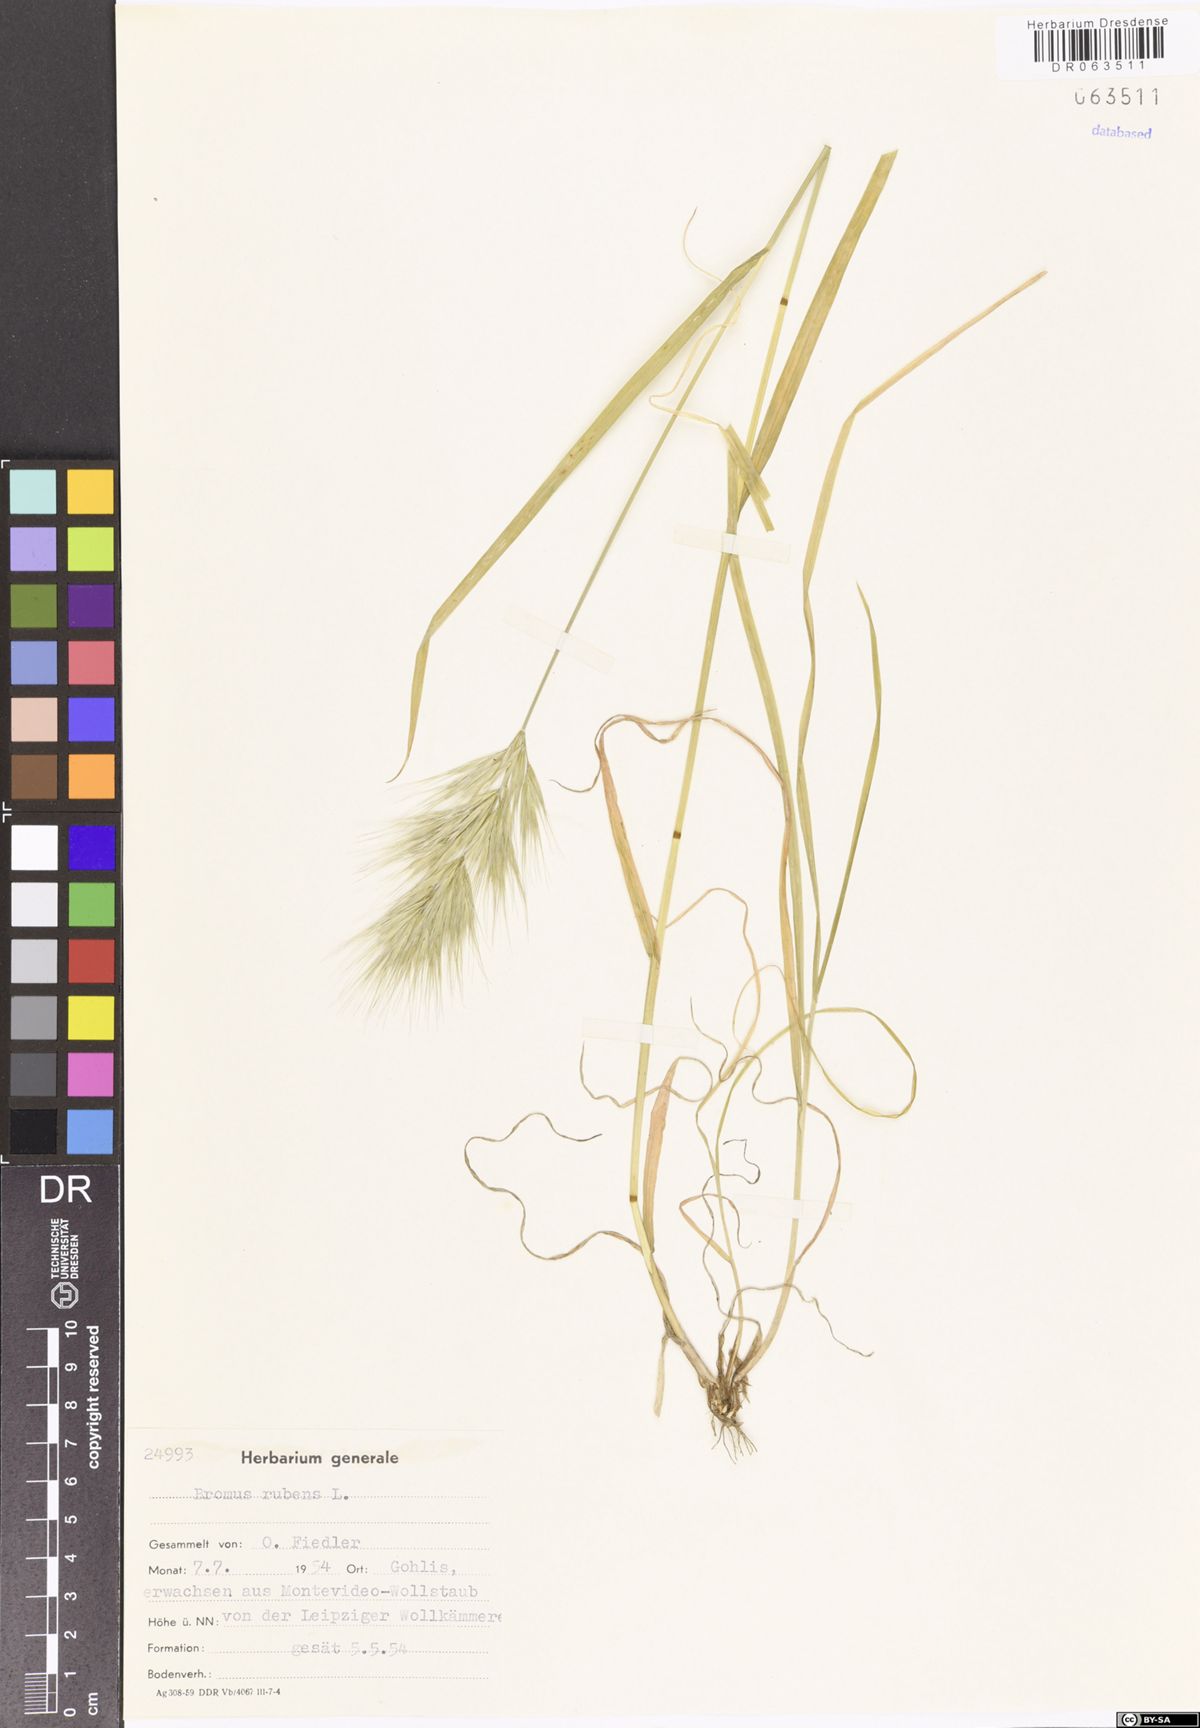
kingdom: Plantae
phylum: Tracheophyta
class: Liliopsida
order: Poales
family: Poaceae
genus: Bromus
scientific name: Bromus rubens
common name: Red brome
